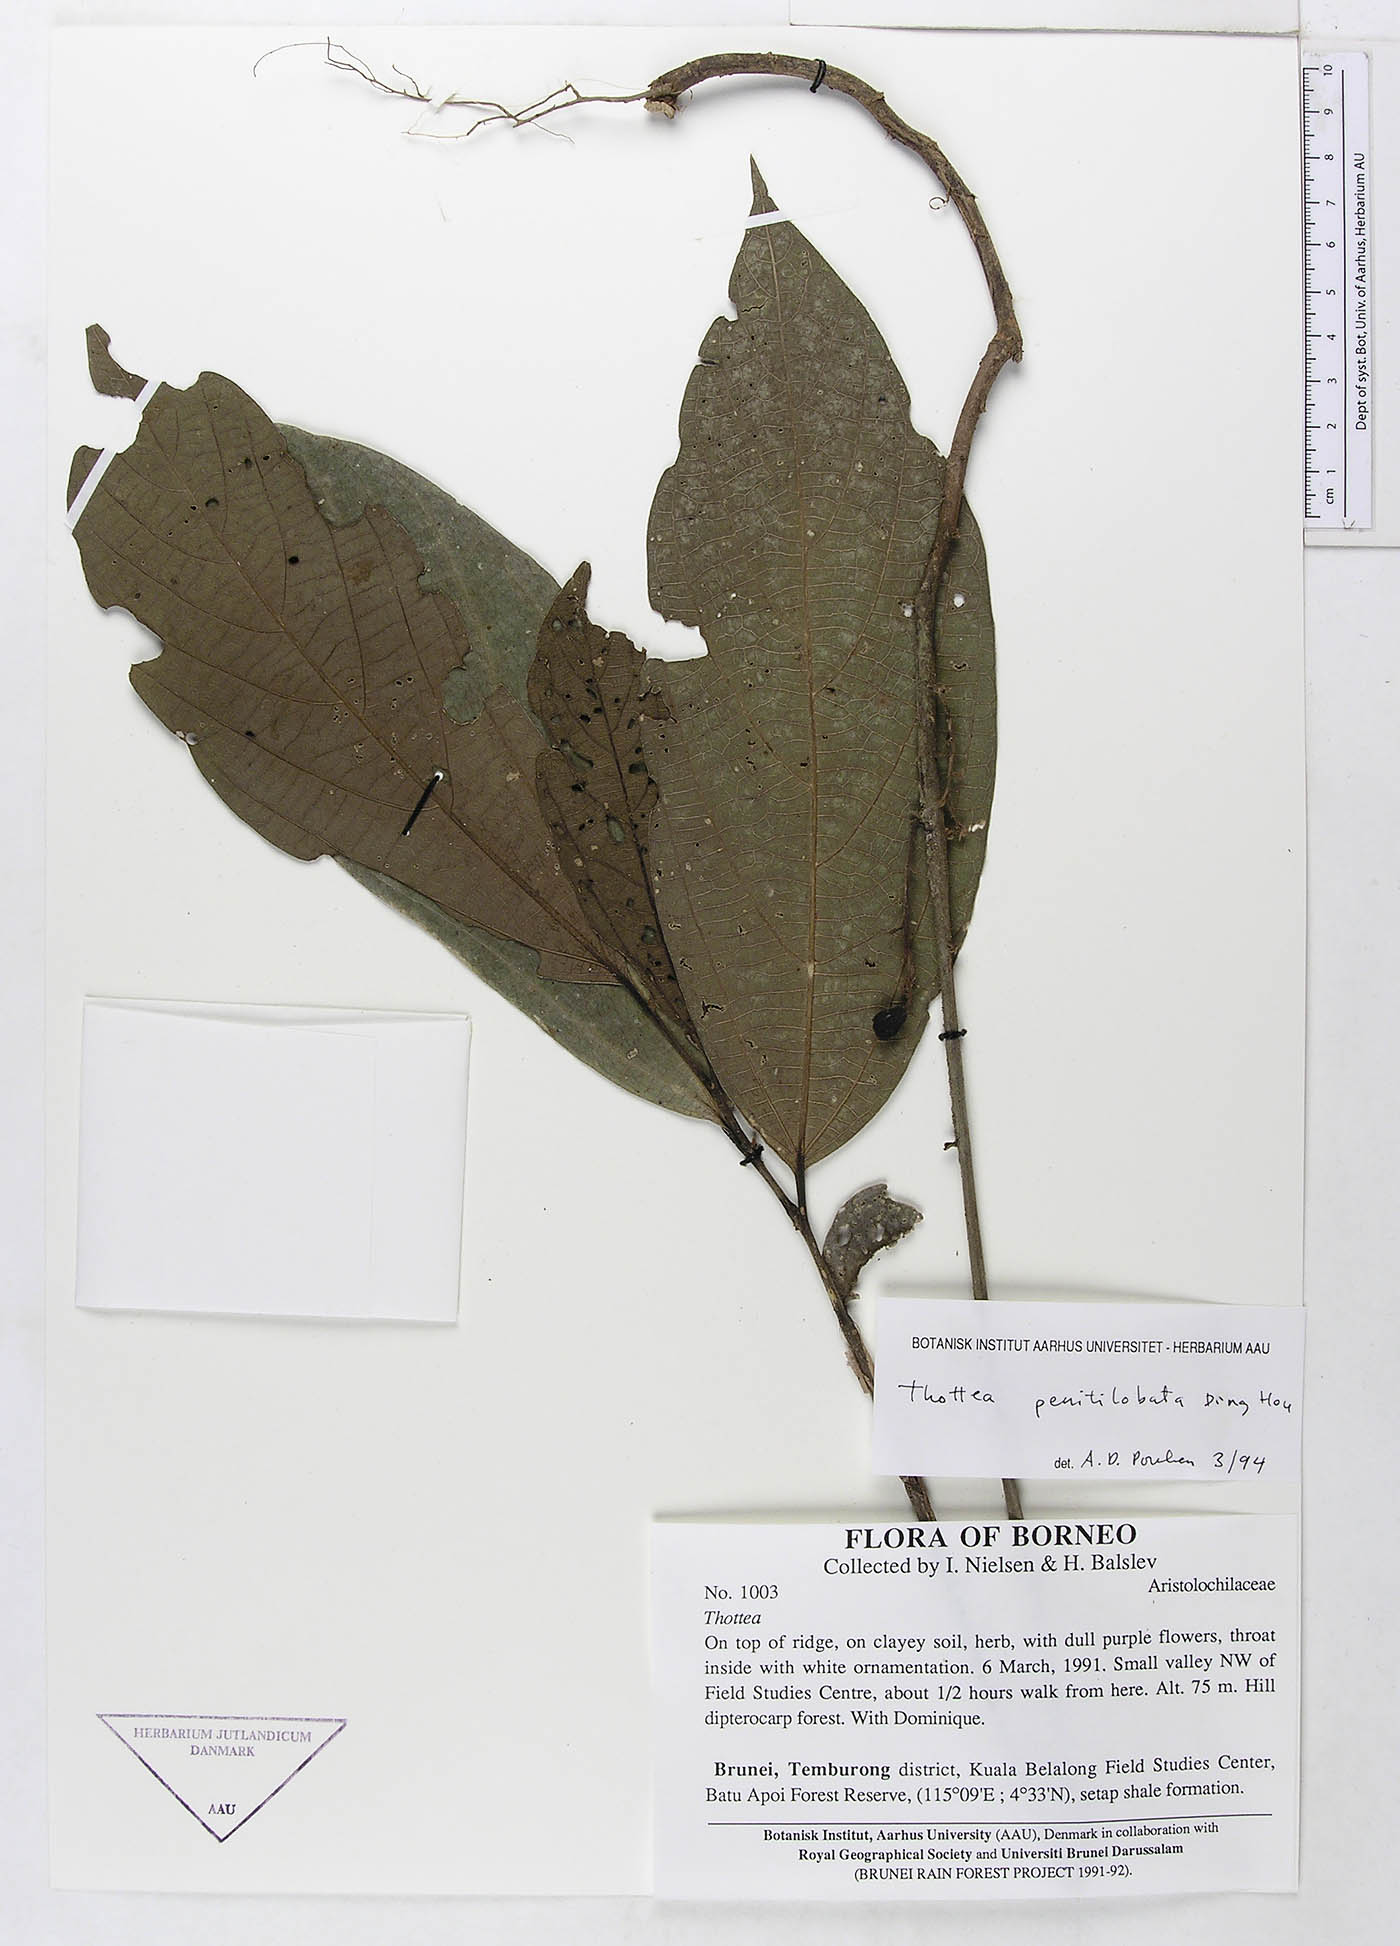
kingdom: Plantae
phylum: Tracheophyta
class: Magnoliopsida
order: Piperales
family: Aristolochiaceae
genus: Thottea
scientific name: Thottea penitilobata
